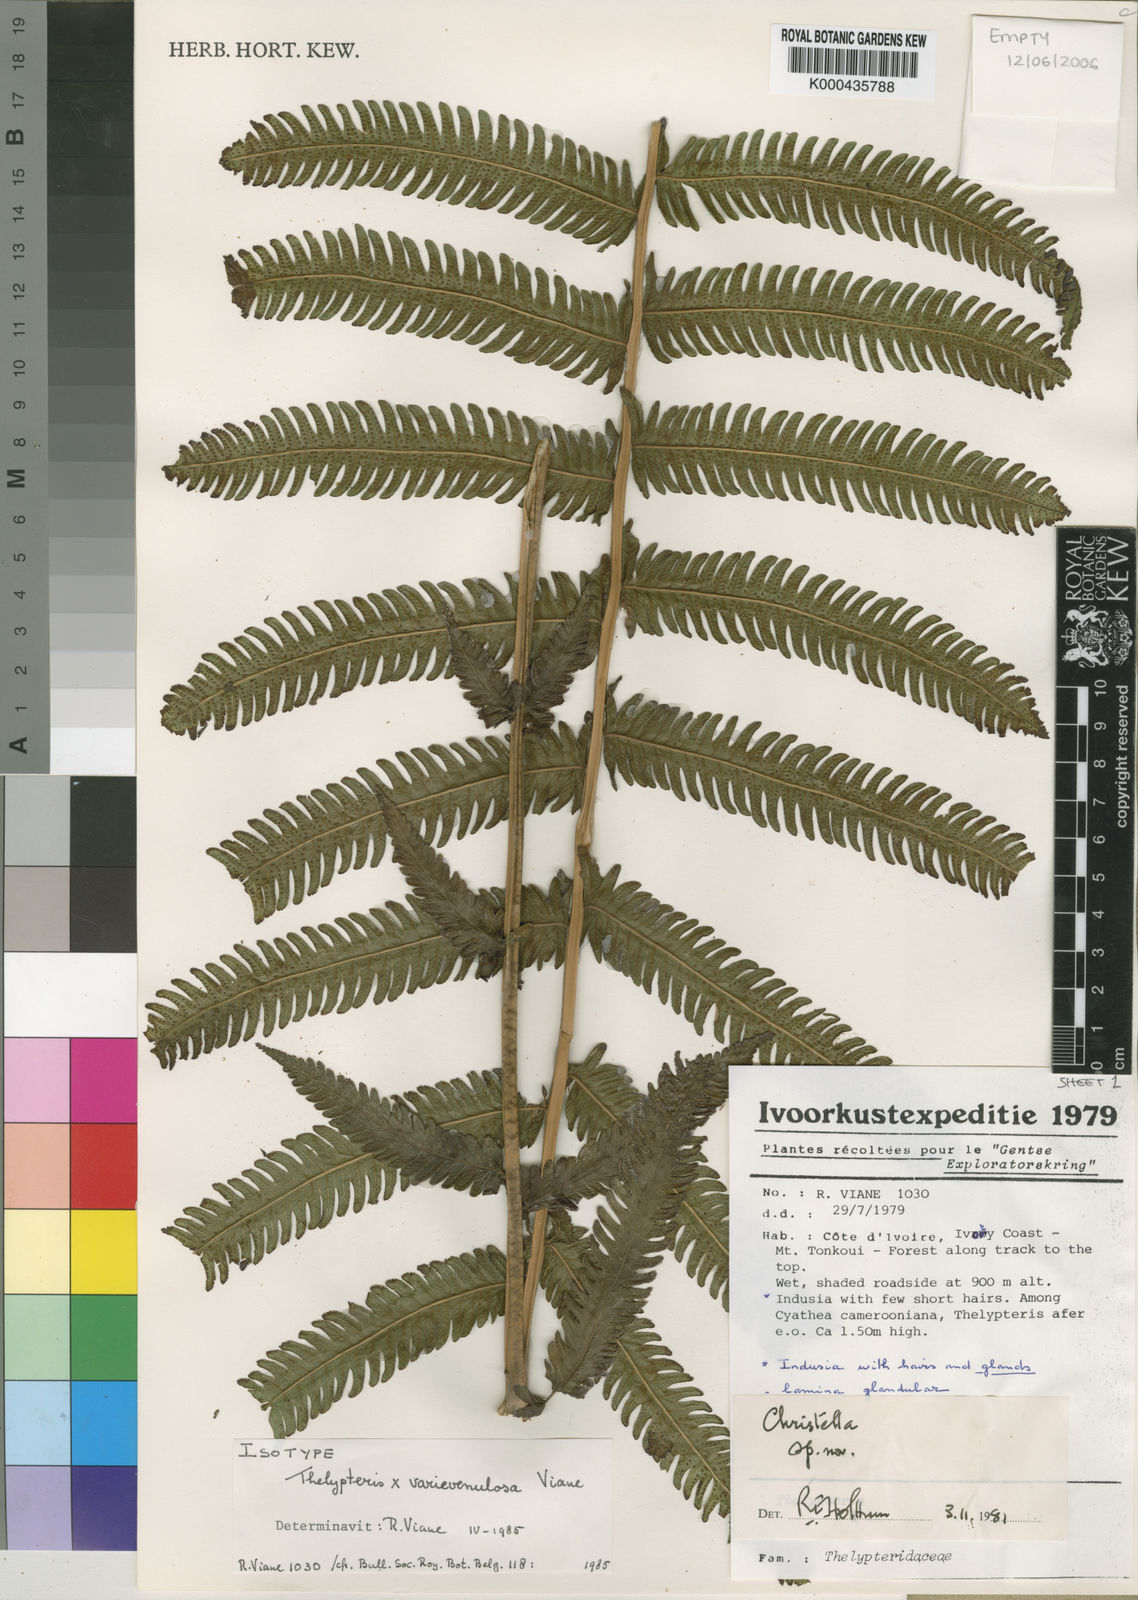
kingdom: Plantae
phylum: Tracheophyta
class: Polypodiopsida
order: Polypodiales
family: Thelypteridaceae
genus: Chrismatopteris
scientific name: Chrismatopteris
